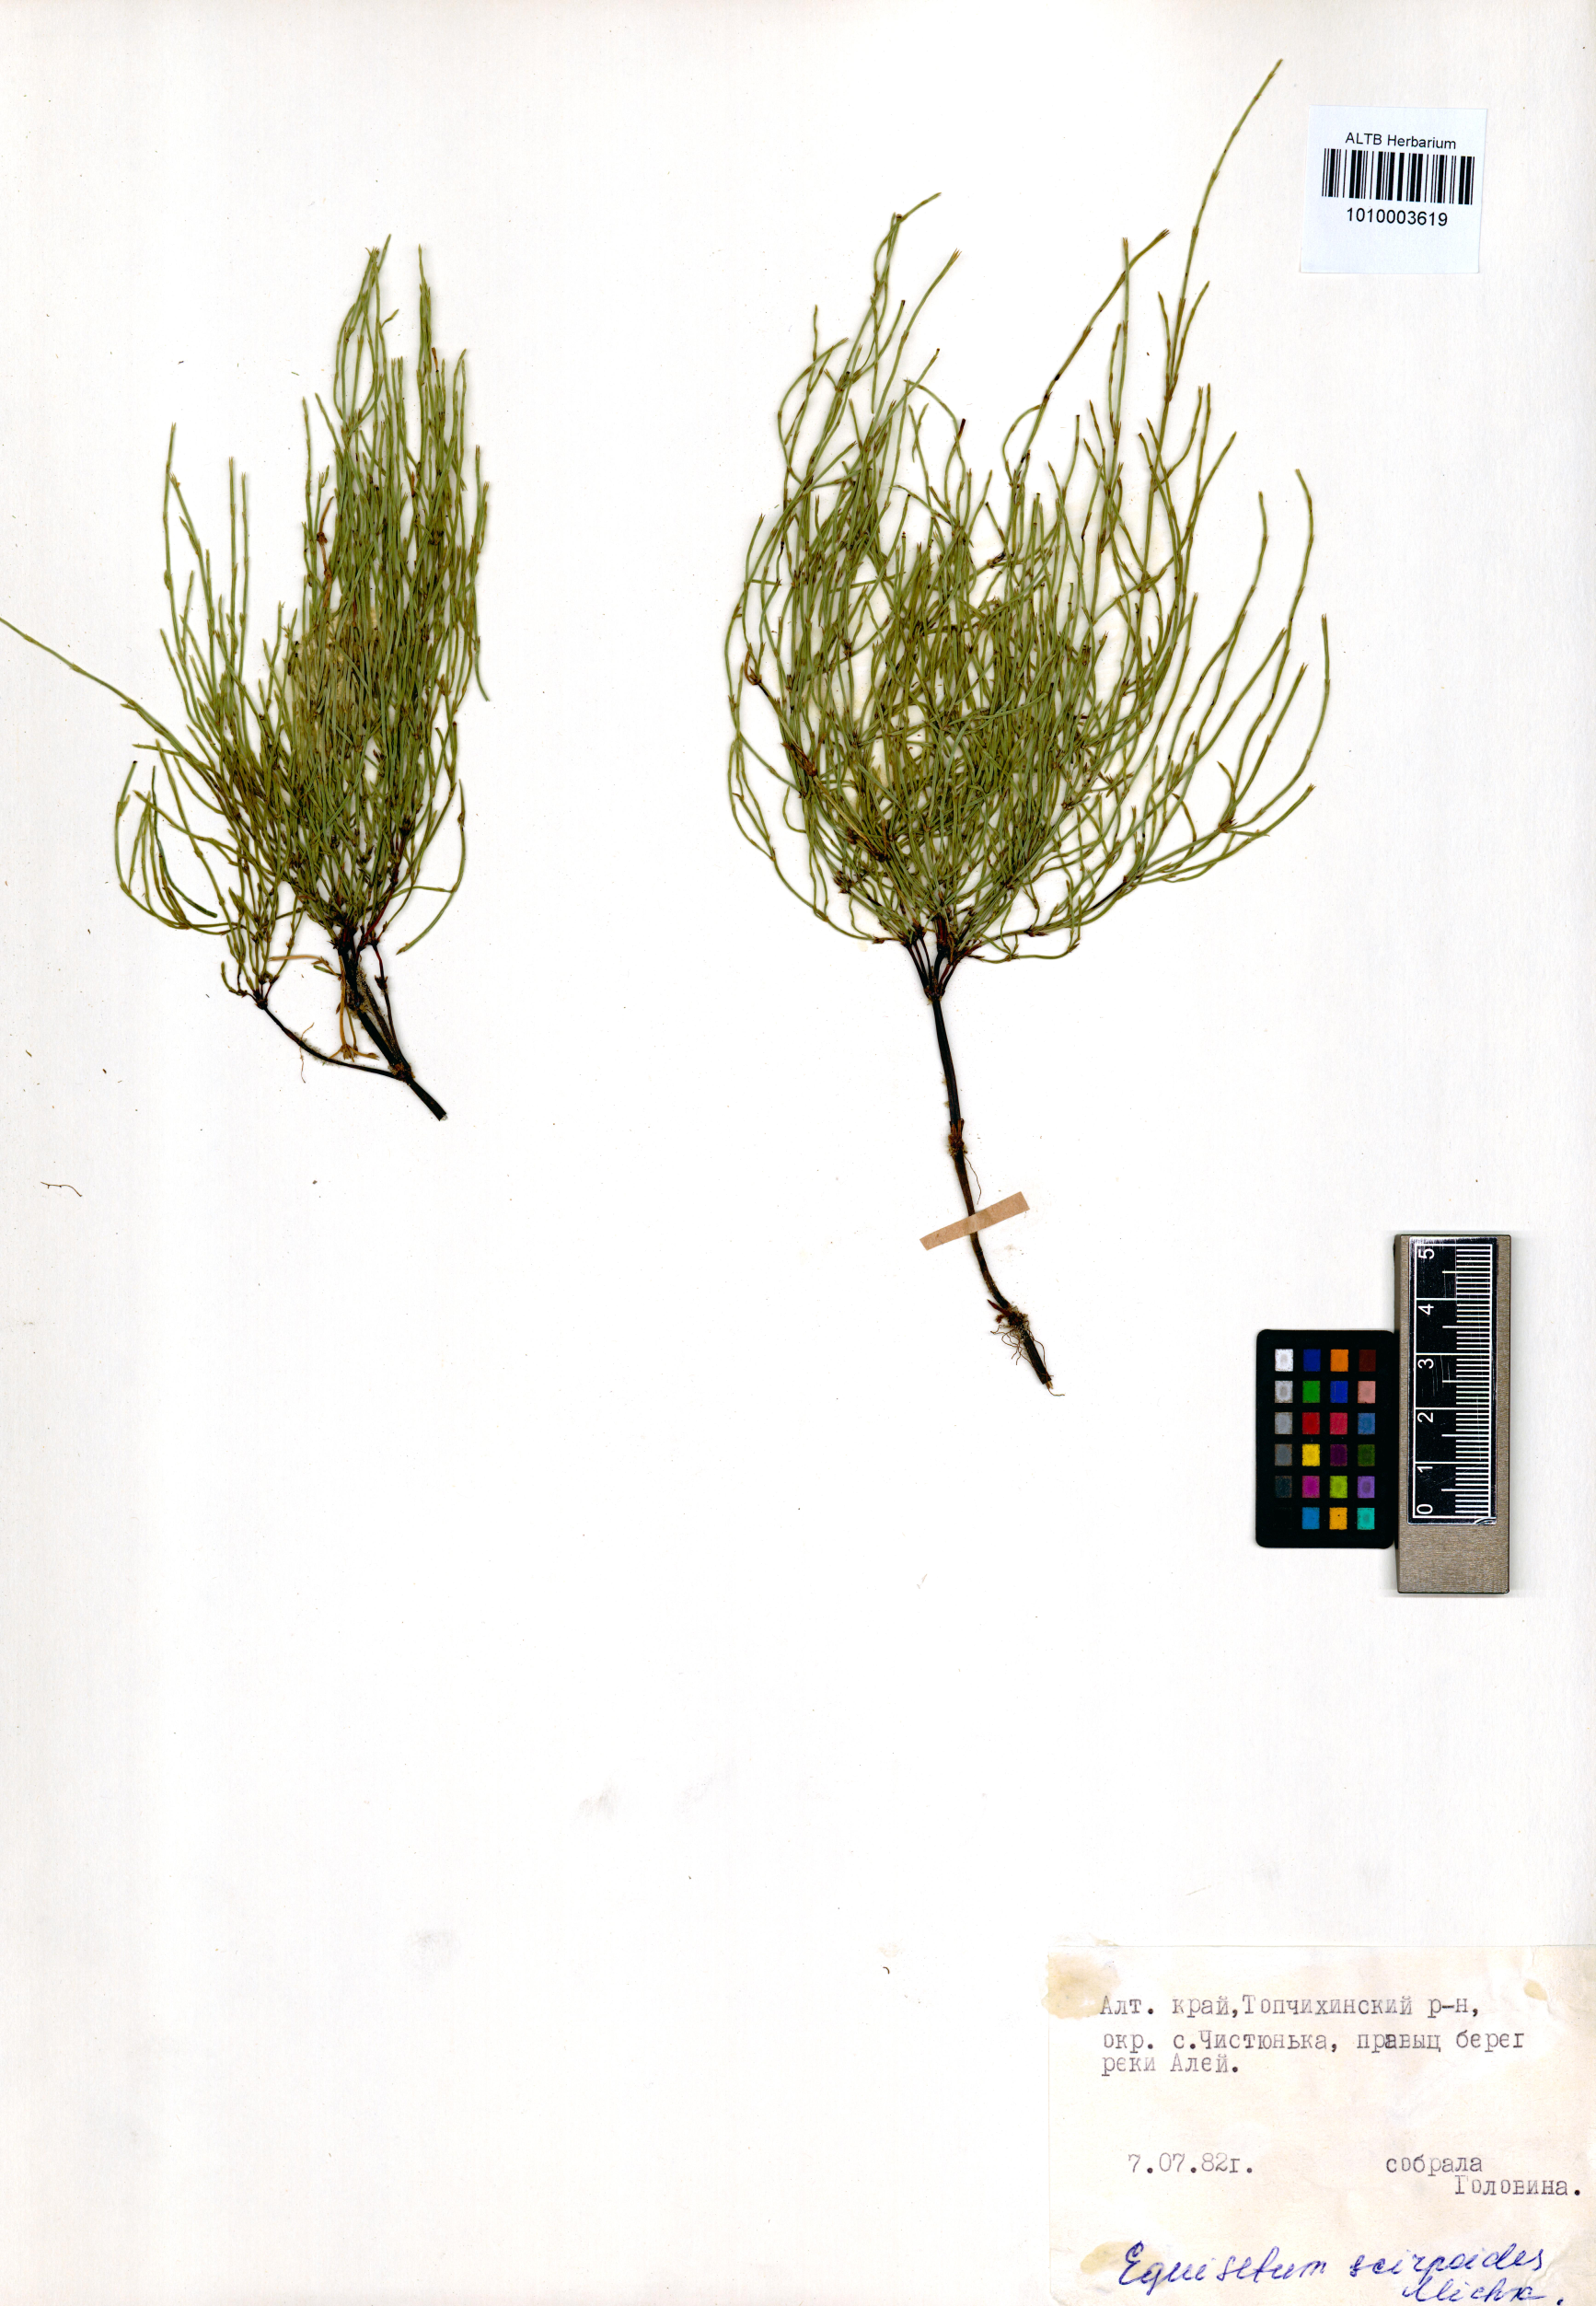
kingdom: Plantae
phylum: Tracheophyta
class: Polypodiopsida
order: Equisetales
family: Equisetaceae
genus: Equisetum
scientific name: Equisetum scirpoides
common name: Delicate horsetail
